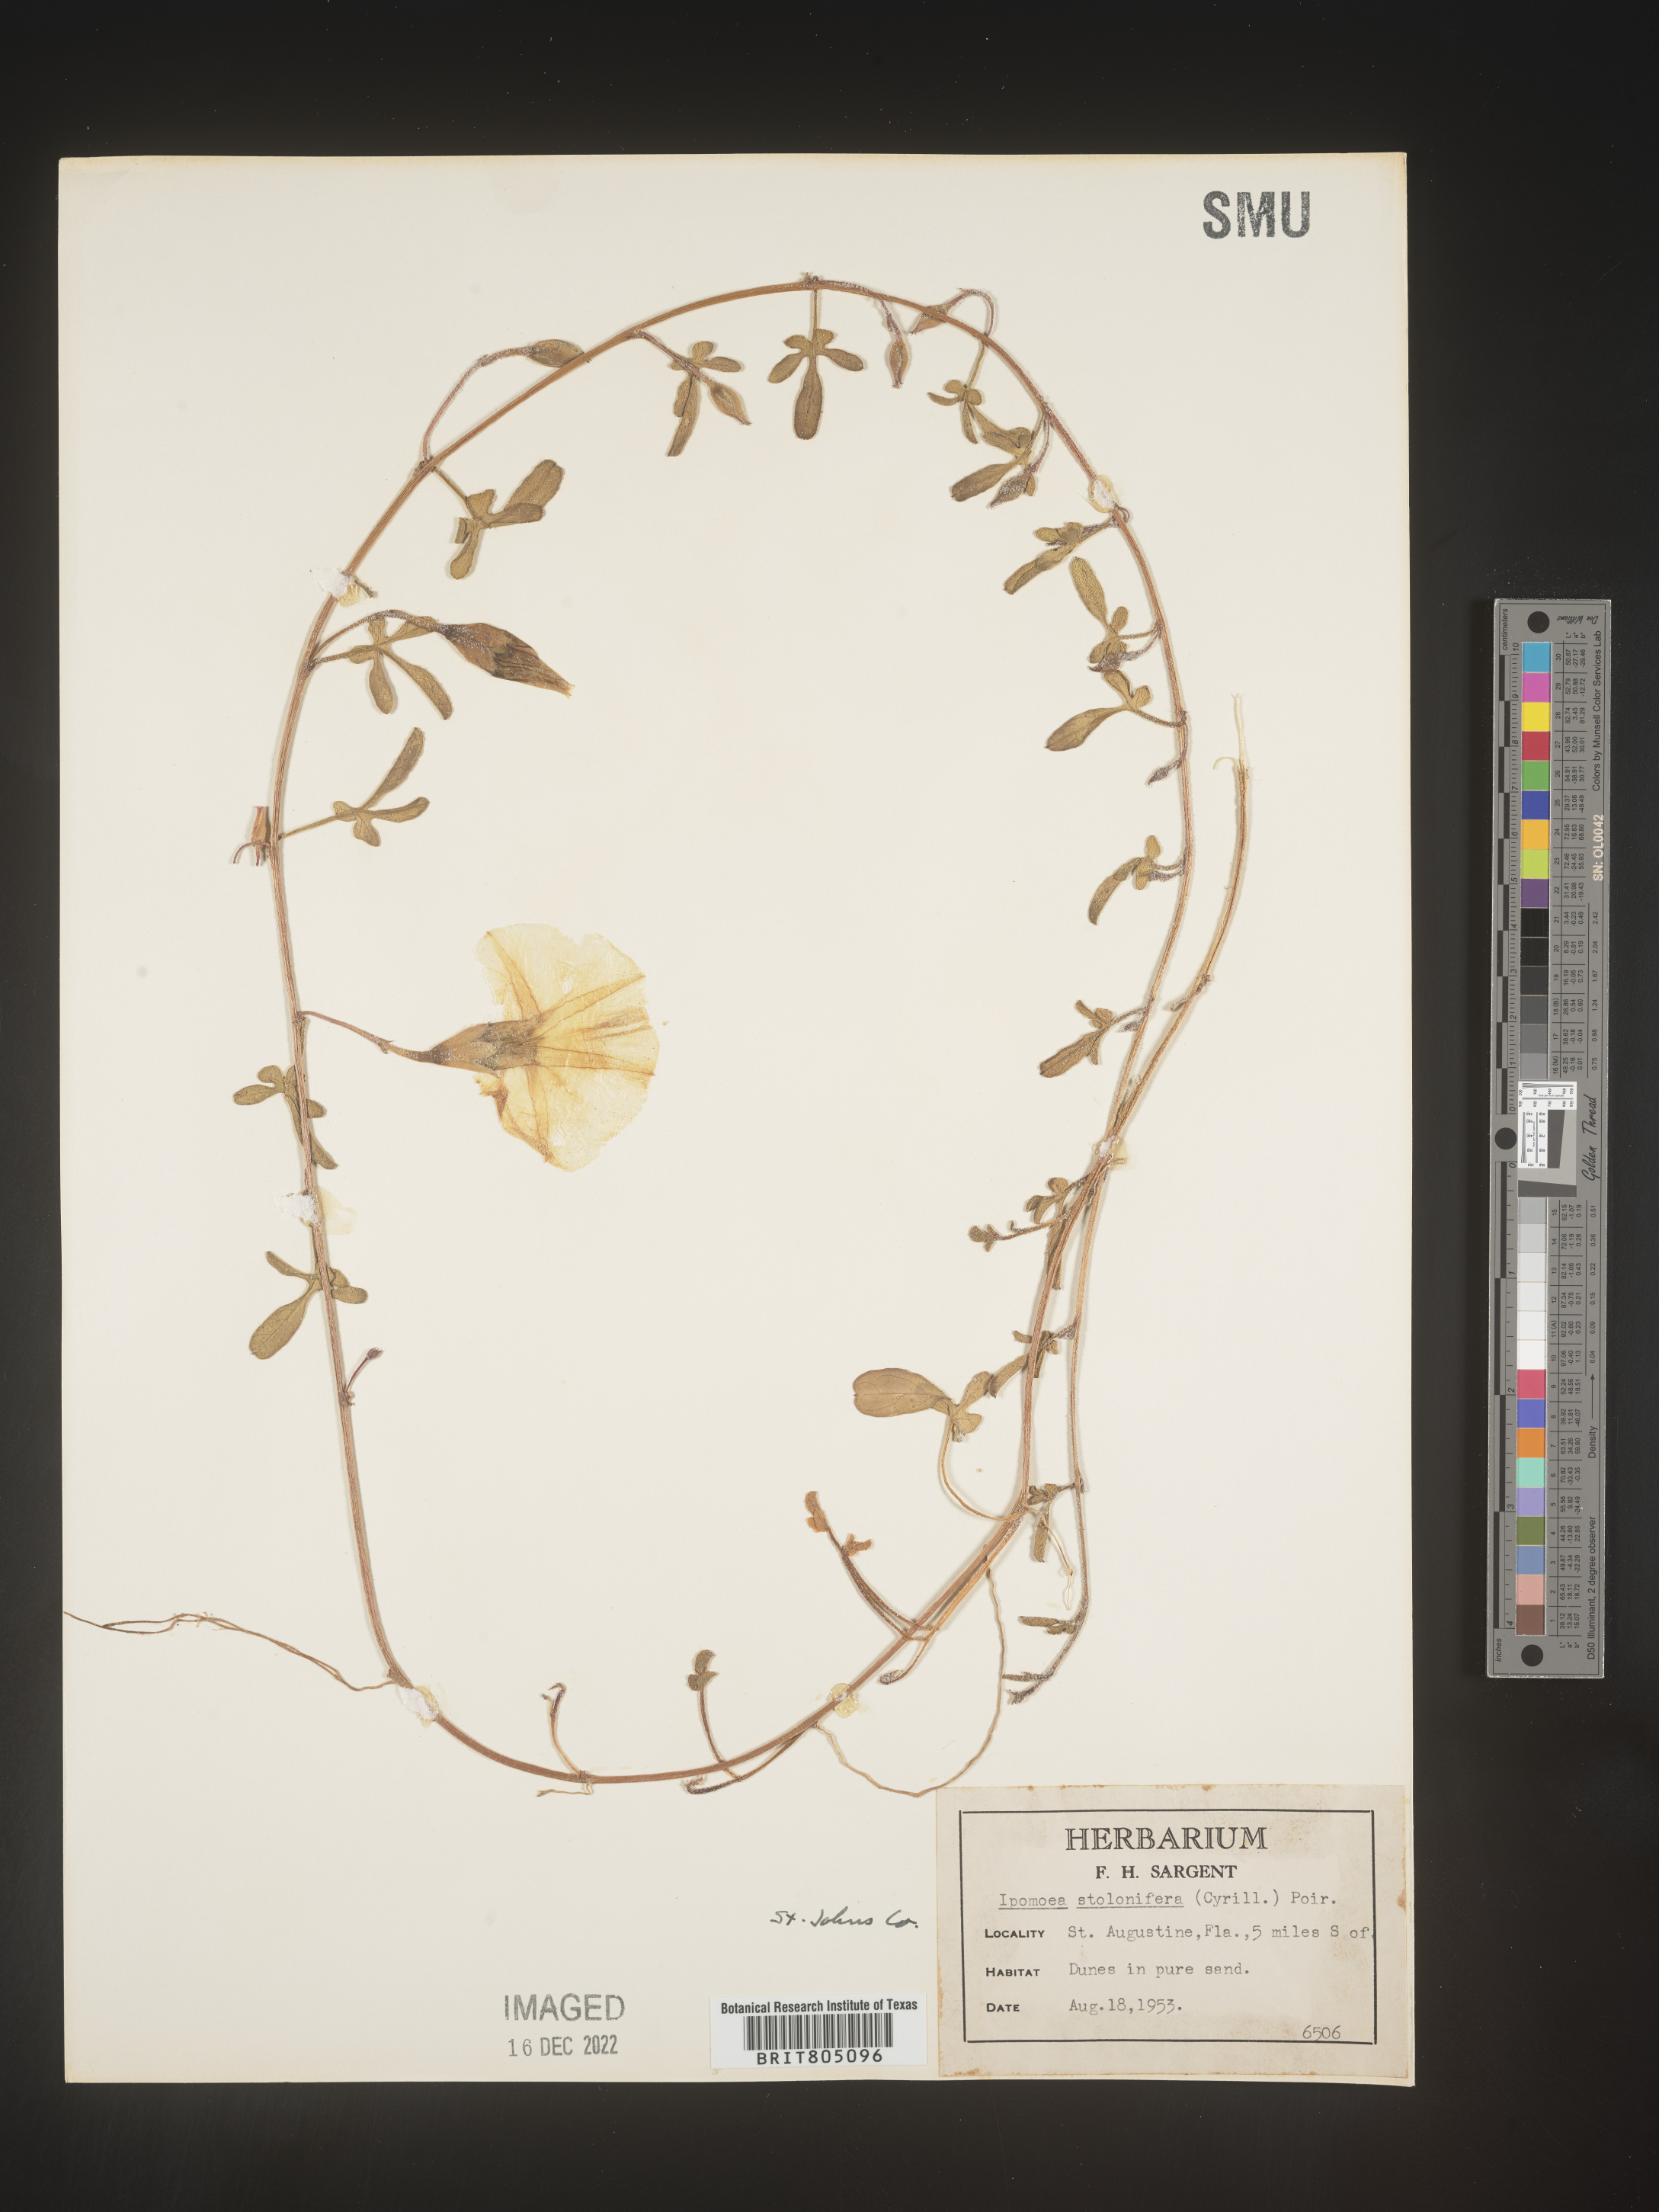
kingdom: Plantae
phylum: Tracheophyta
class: Magnoliopsida
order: Solanales
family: Convolvulaceae
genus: Ipomoea
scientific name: Ipomoea imperati
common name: Fiddle-leaf morning-glory
